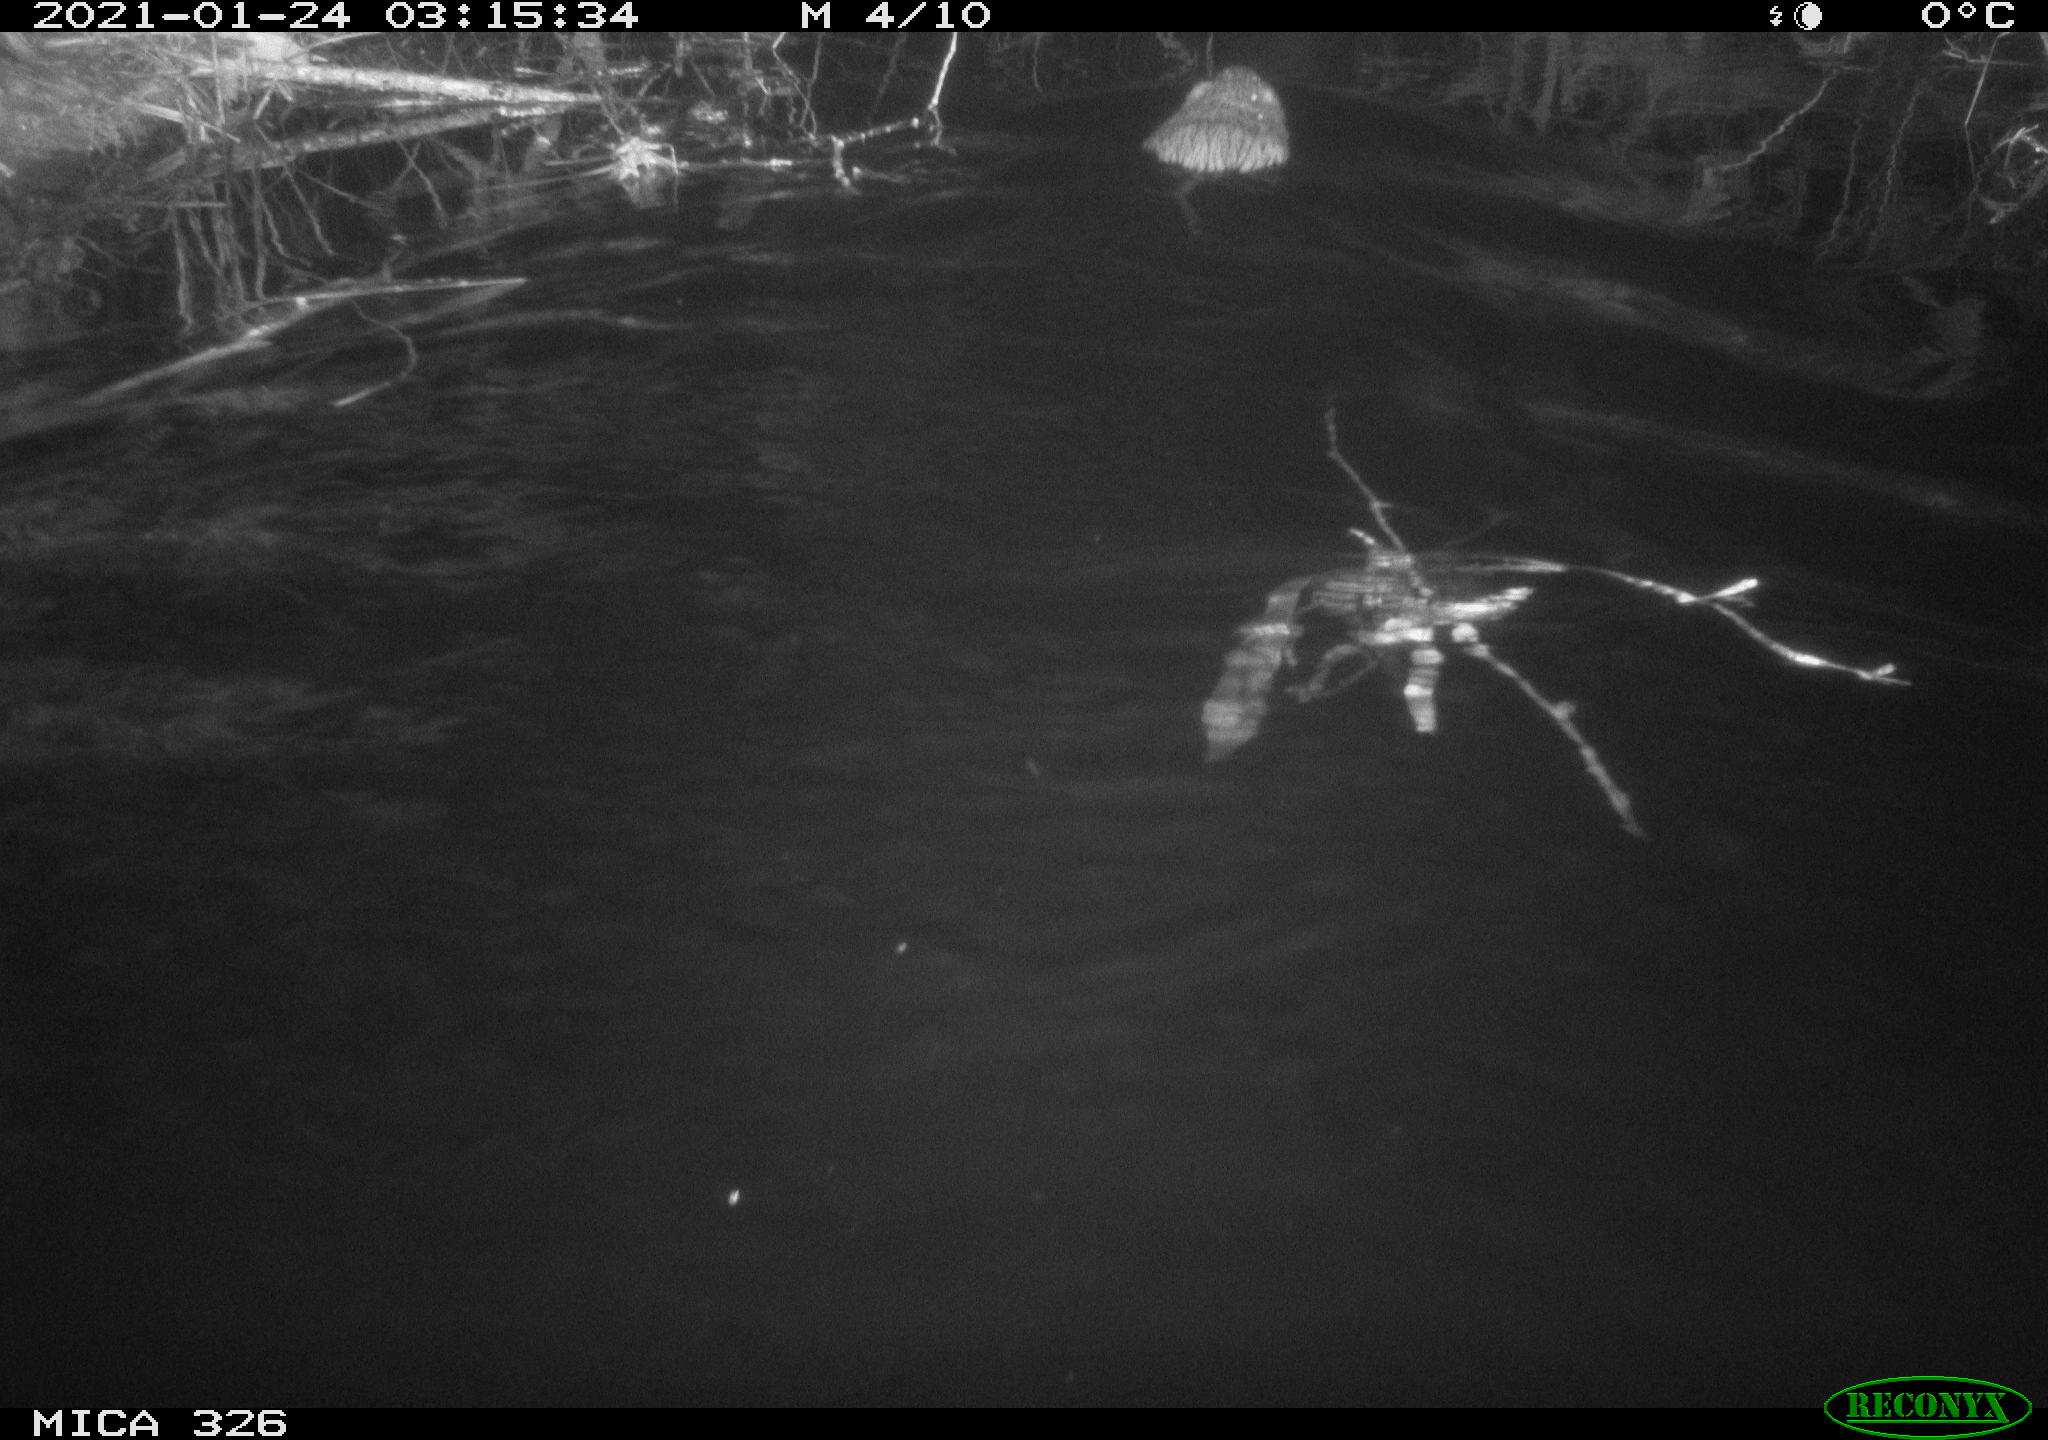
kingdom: Animalia
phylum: Chordata
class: Mammalia
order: Rodentia
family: Cricetidae
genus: Ondatra
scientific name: Ondatra zibethicus
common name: Muskrat
